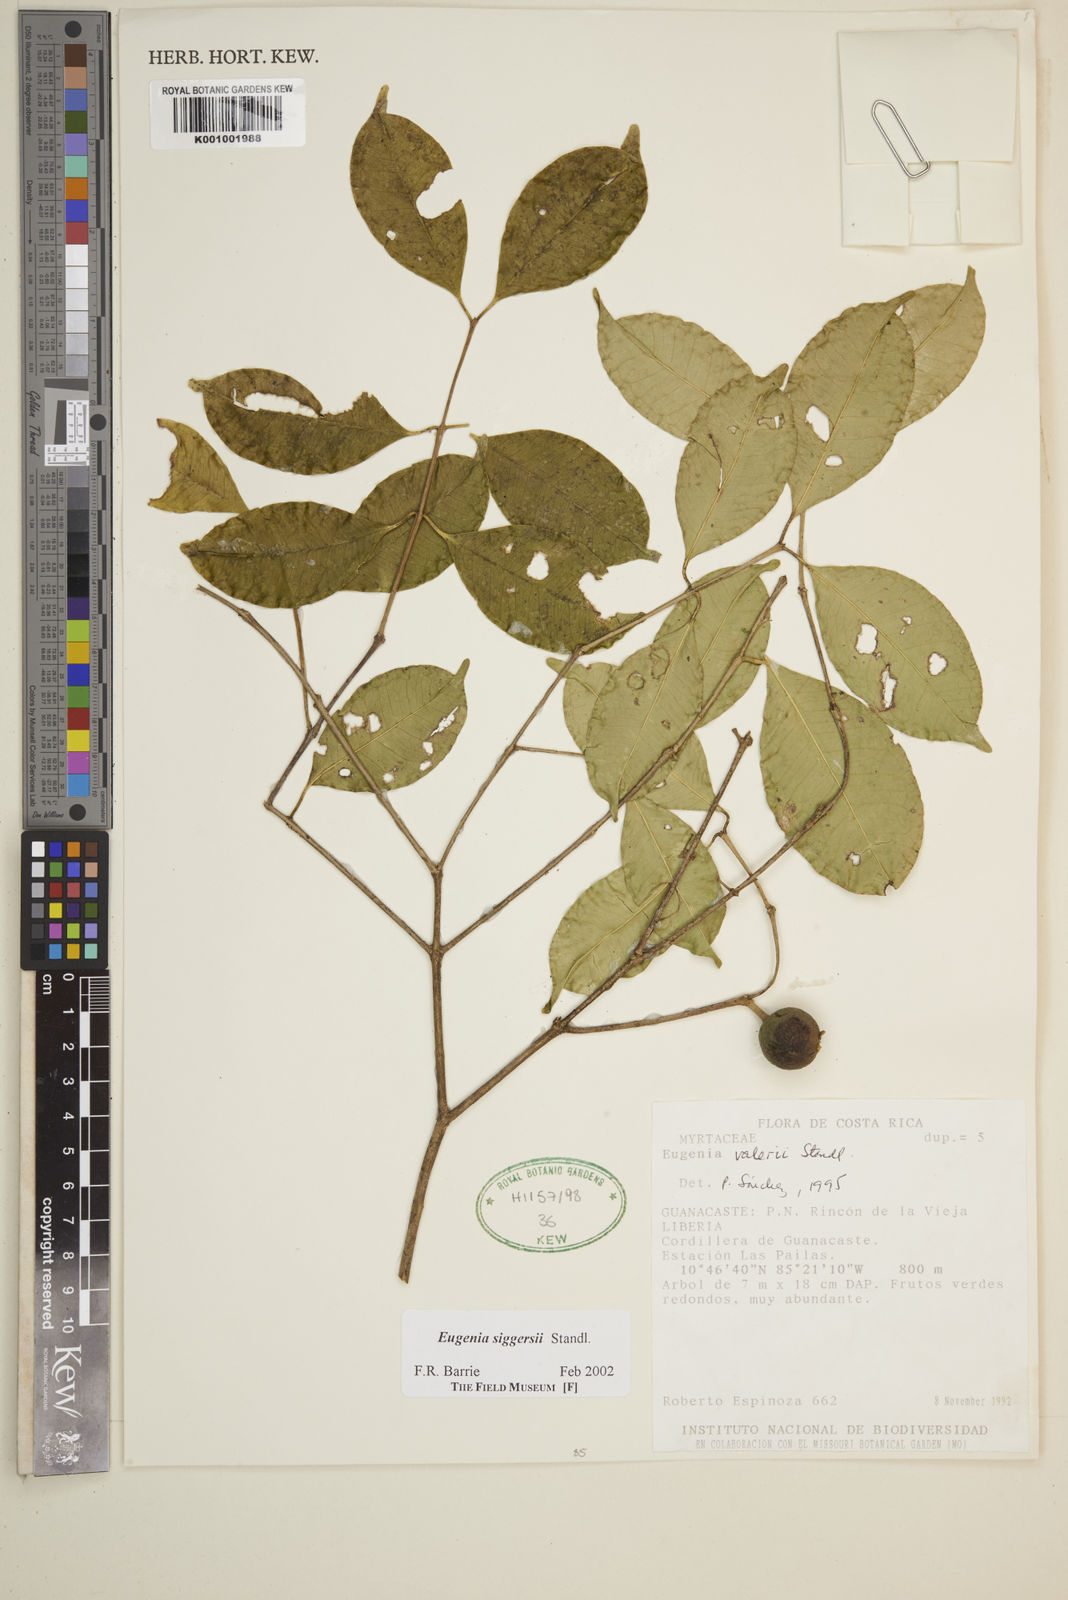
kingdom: Plantae
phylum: Tracheophyta
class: Magnoliopsida
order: Myrtales
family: Myrtaceae
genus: Eugenia
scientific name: Eugenia siggersii
